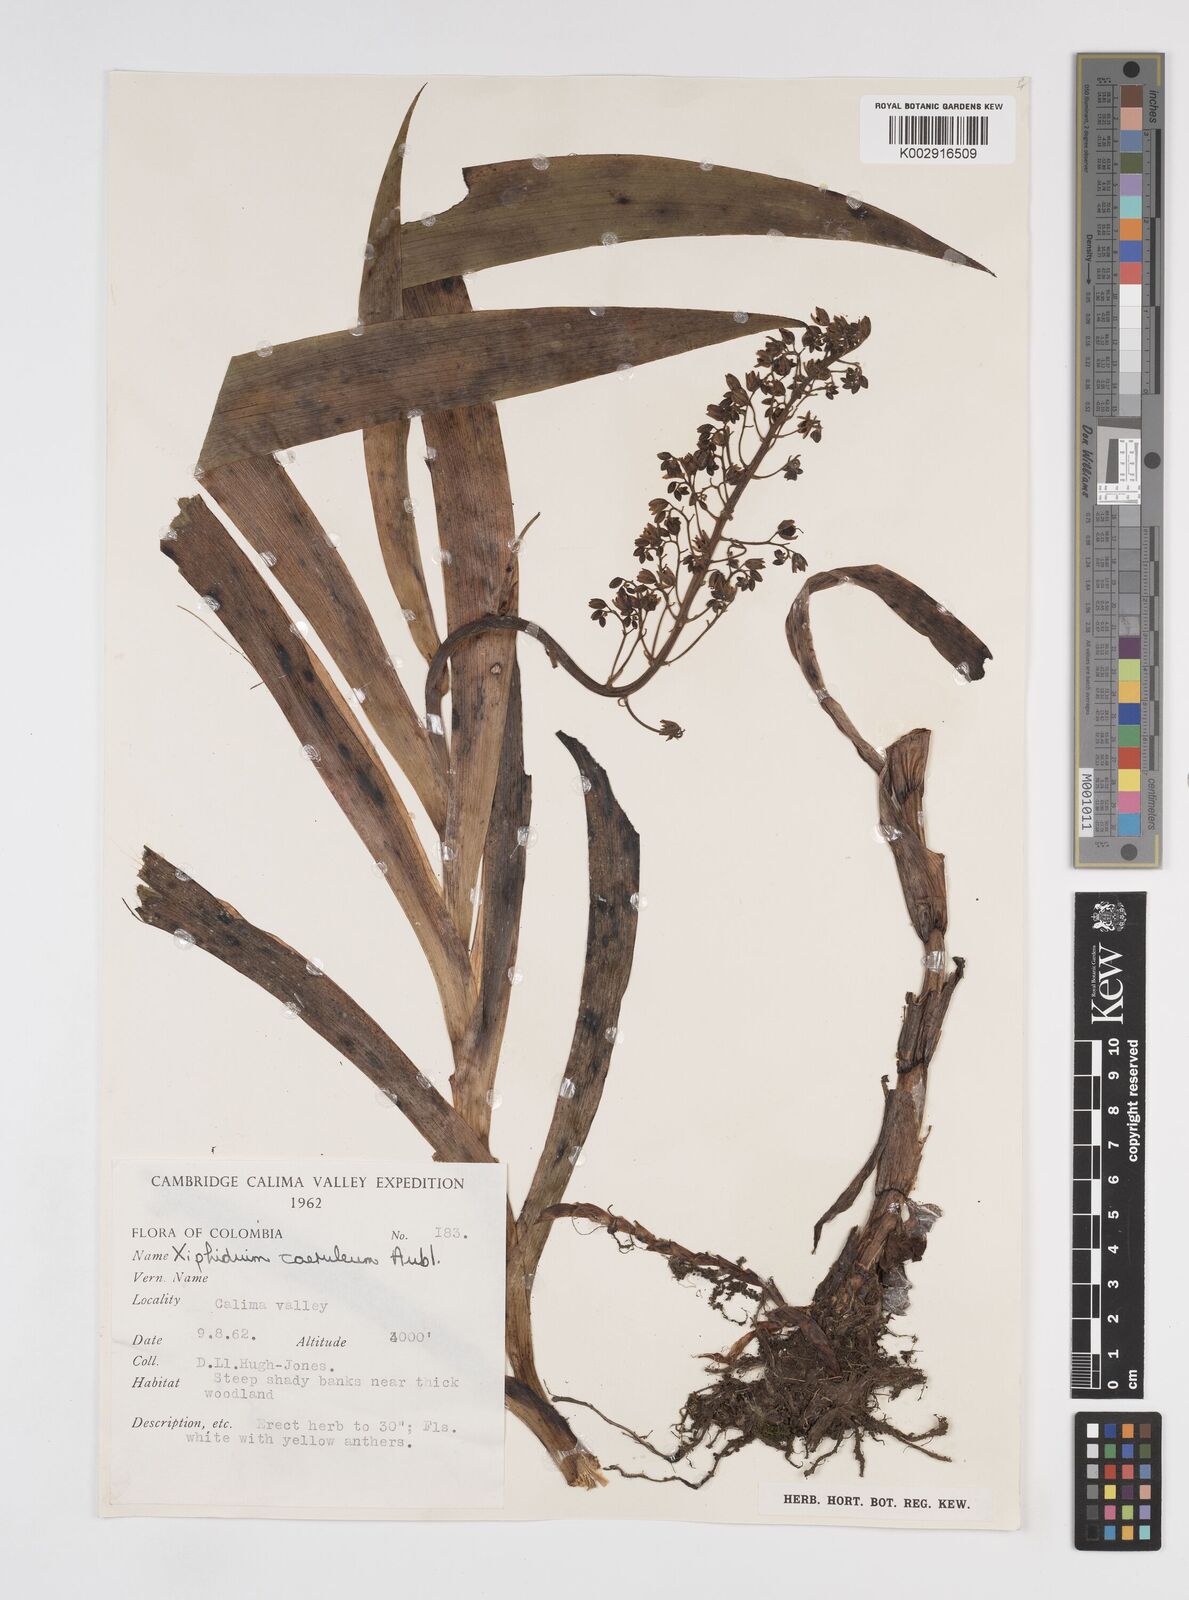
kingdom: Plantae
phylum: Tracheophyta
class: Liliopsida
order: Commelinales
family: Haemodoraceae
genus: Xiphidium
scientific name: Xiphidium caeruleum
